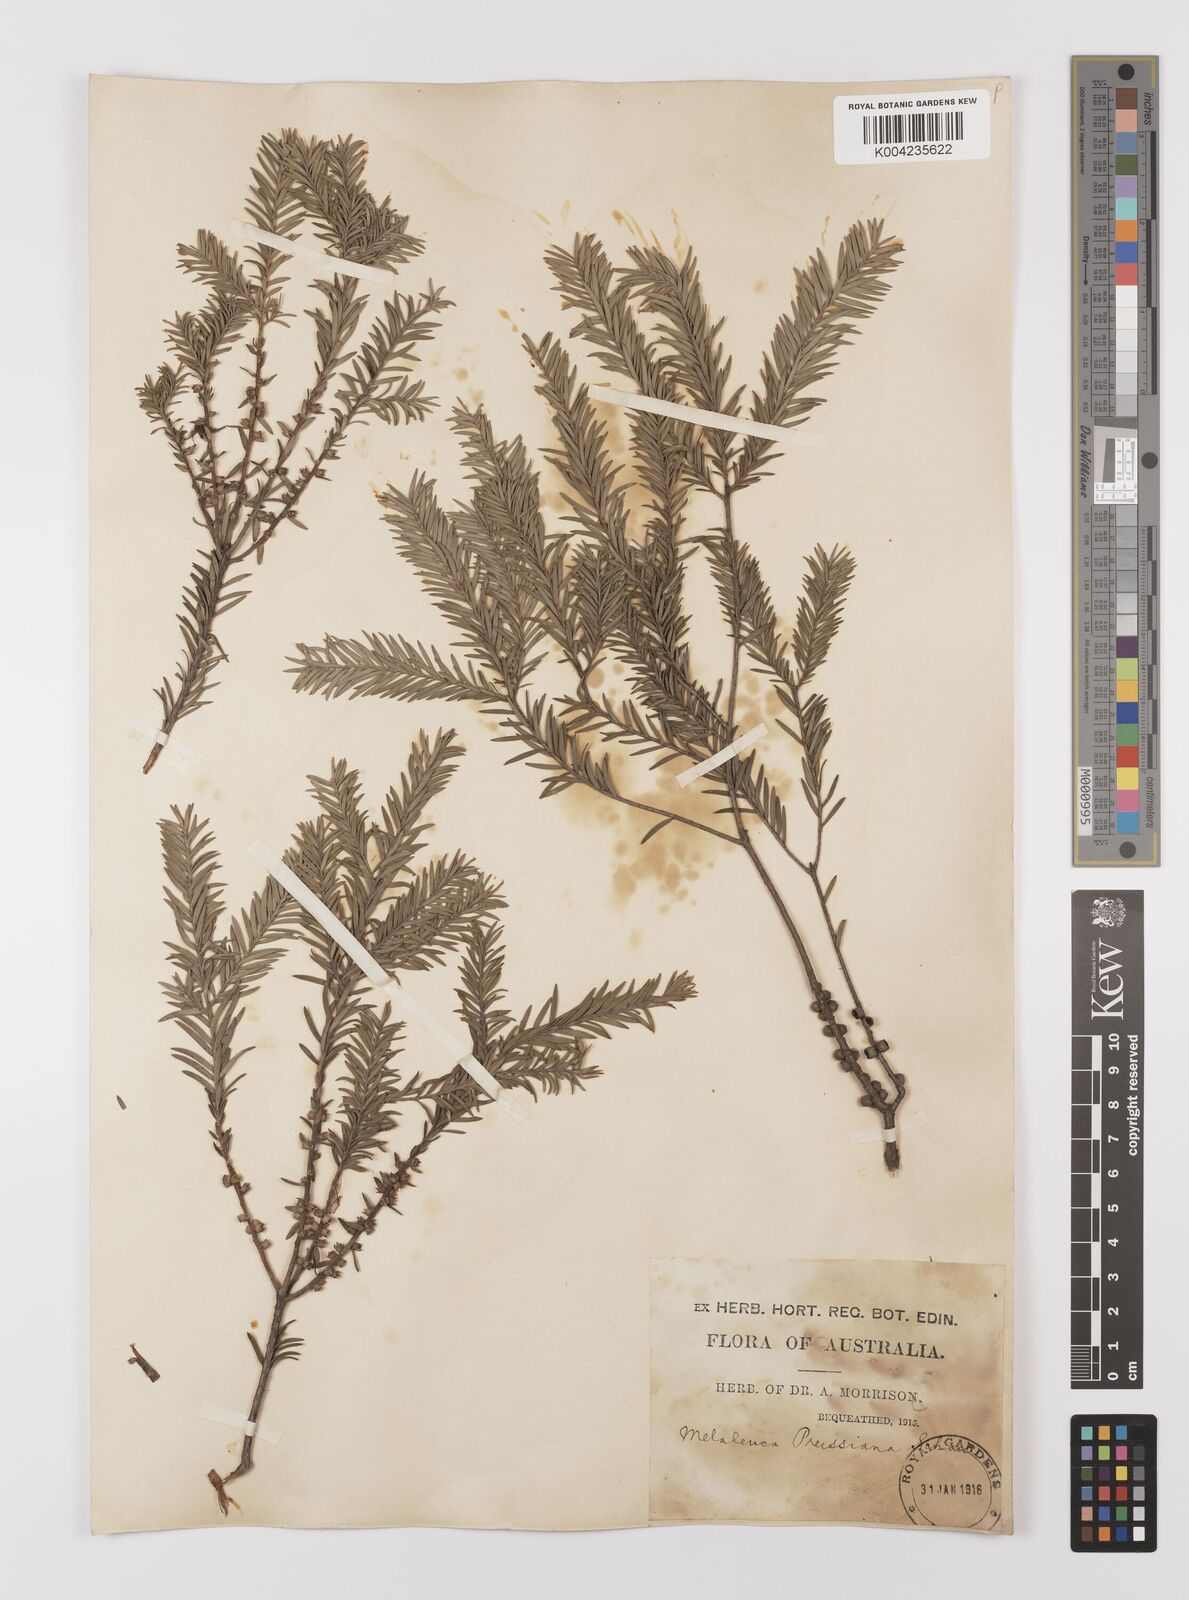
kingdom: Plantae
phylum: Tracheophyta
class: Magnoliopsida
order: Myrtales
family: Myrtaceae
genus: Melaleuca
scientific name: Melaleuca preissiana
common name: Preiss's paperbark
